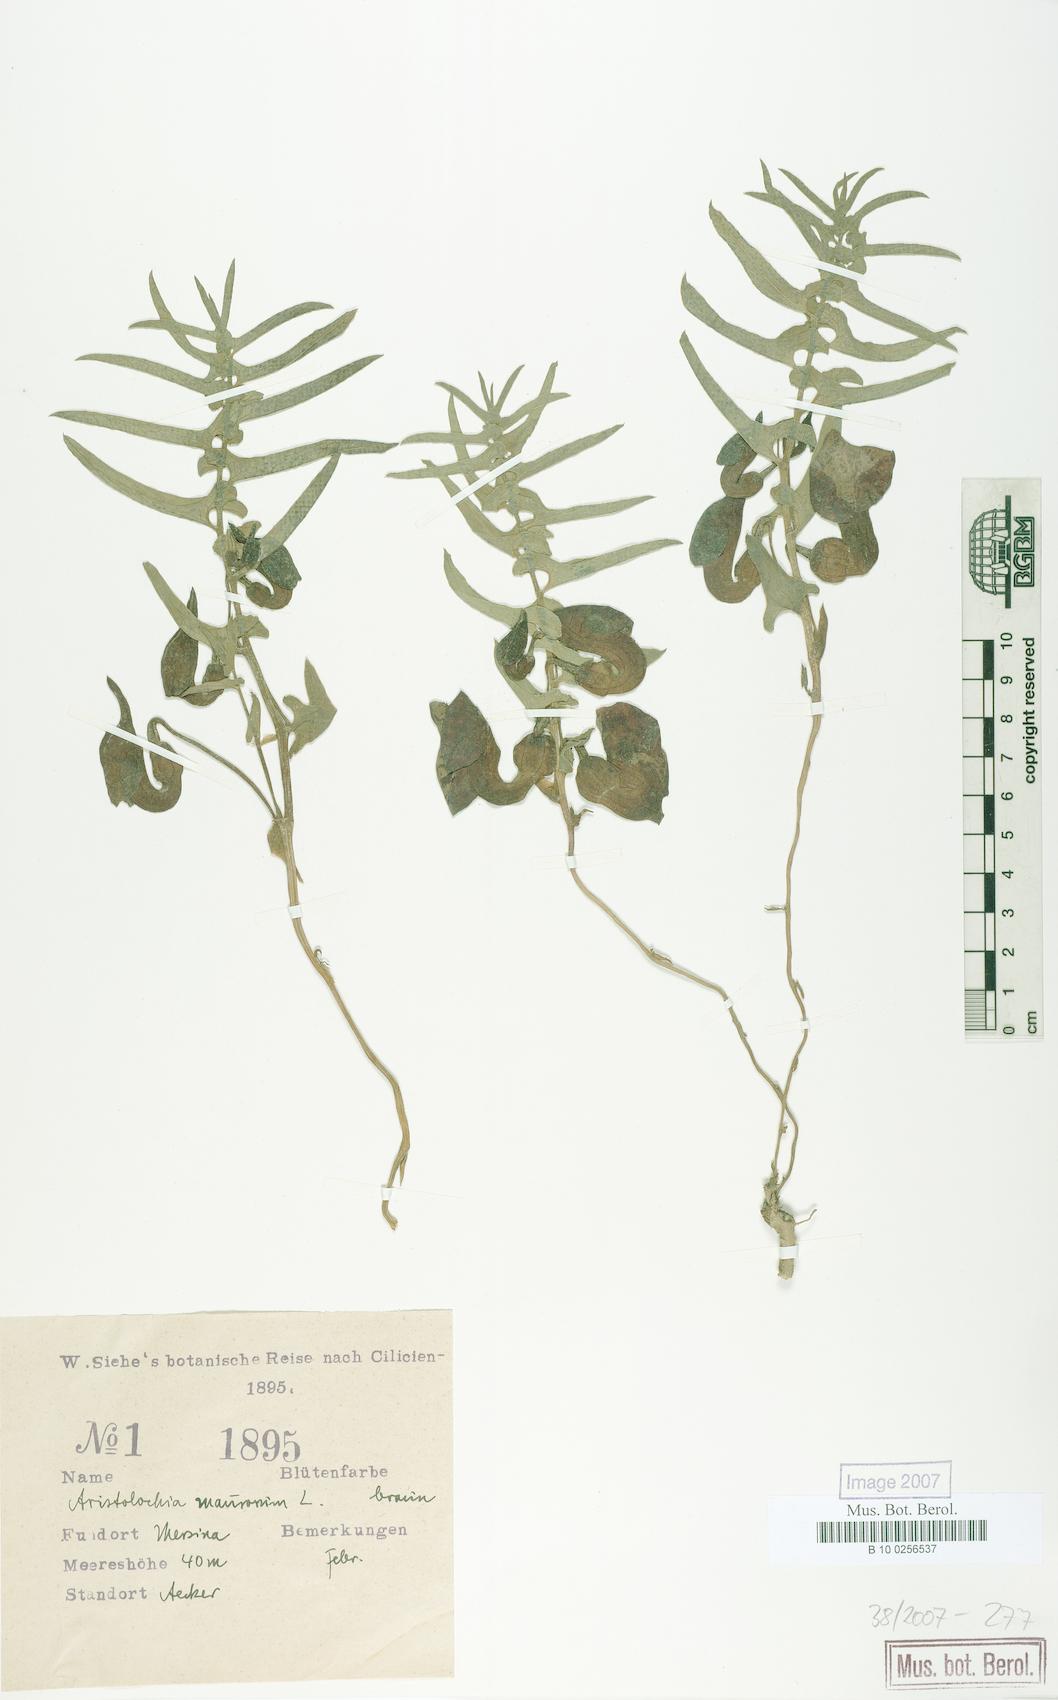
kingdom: Plantae
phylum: Tracheophyta
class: Magnoliopsida
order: Piperales
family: Aristolochiaceae
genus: Aristolochia
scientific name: Aristolochia maurorum
